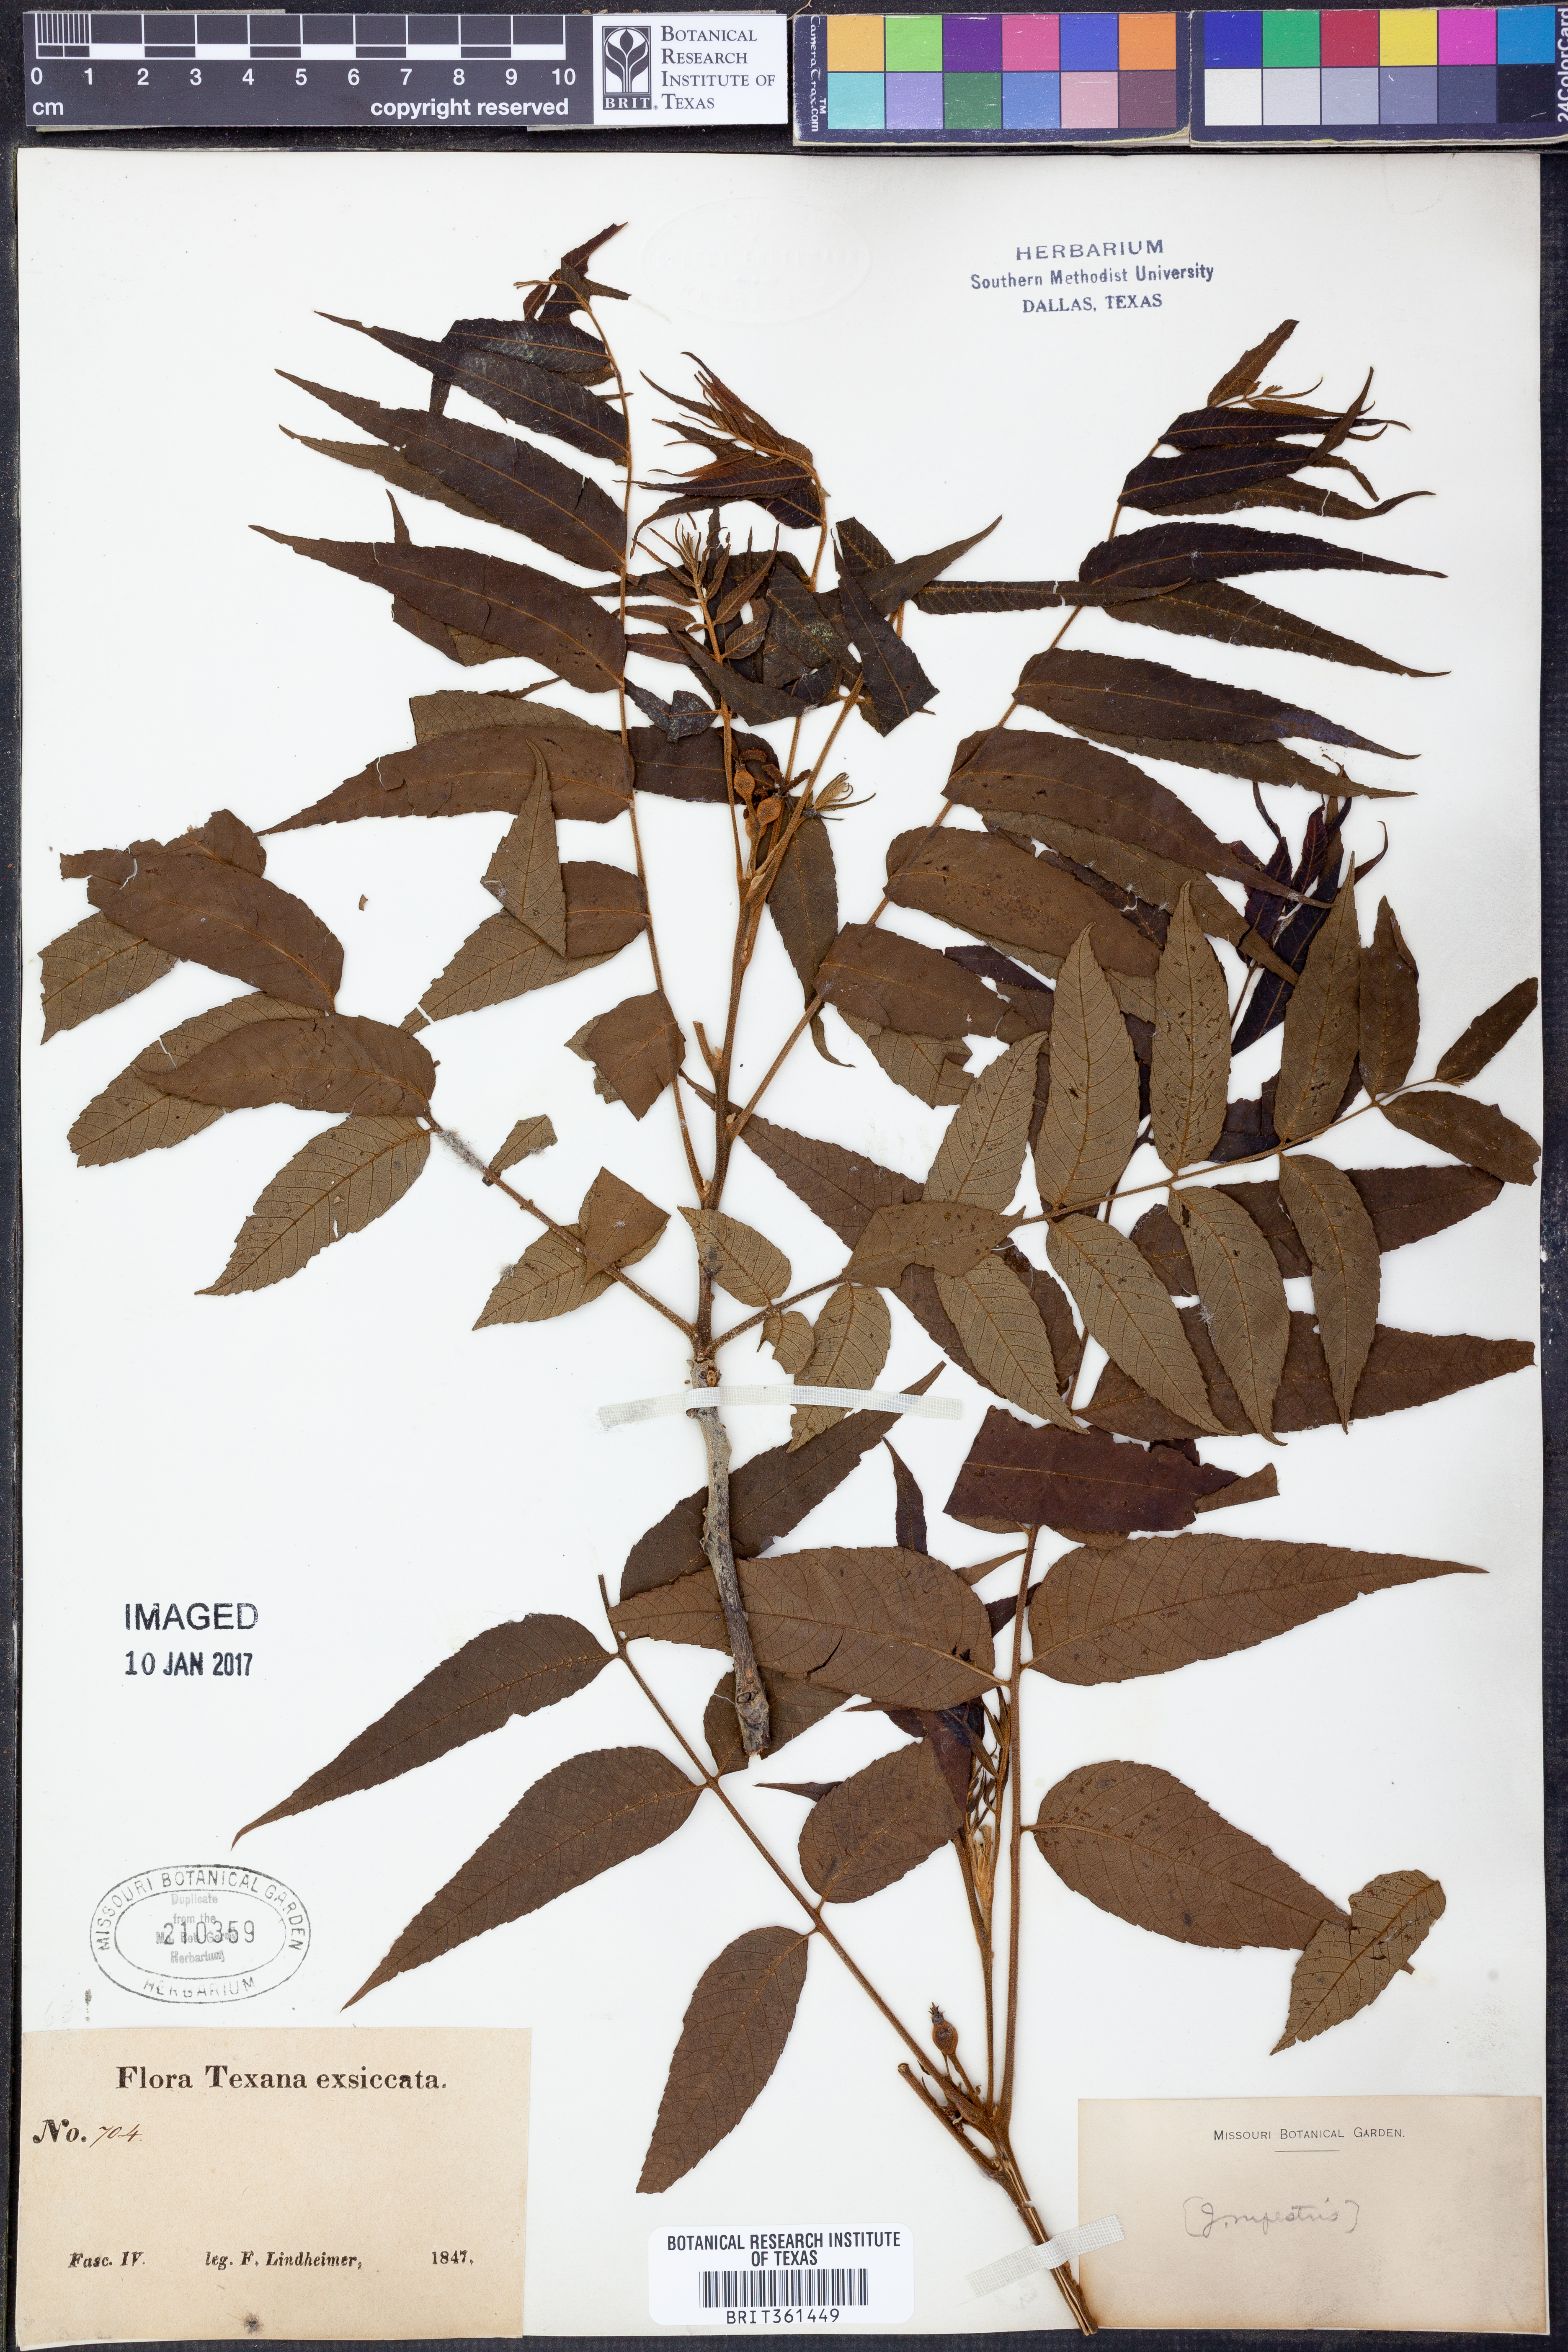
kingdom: Plantae
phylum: Tracheophyta
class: Magnoliopsida
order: Fagales
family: Juglandaceae
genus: Juglans
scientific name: Juglans microcarpa
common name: Texas walnut
